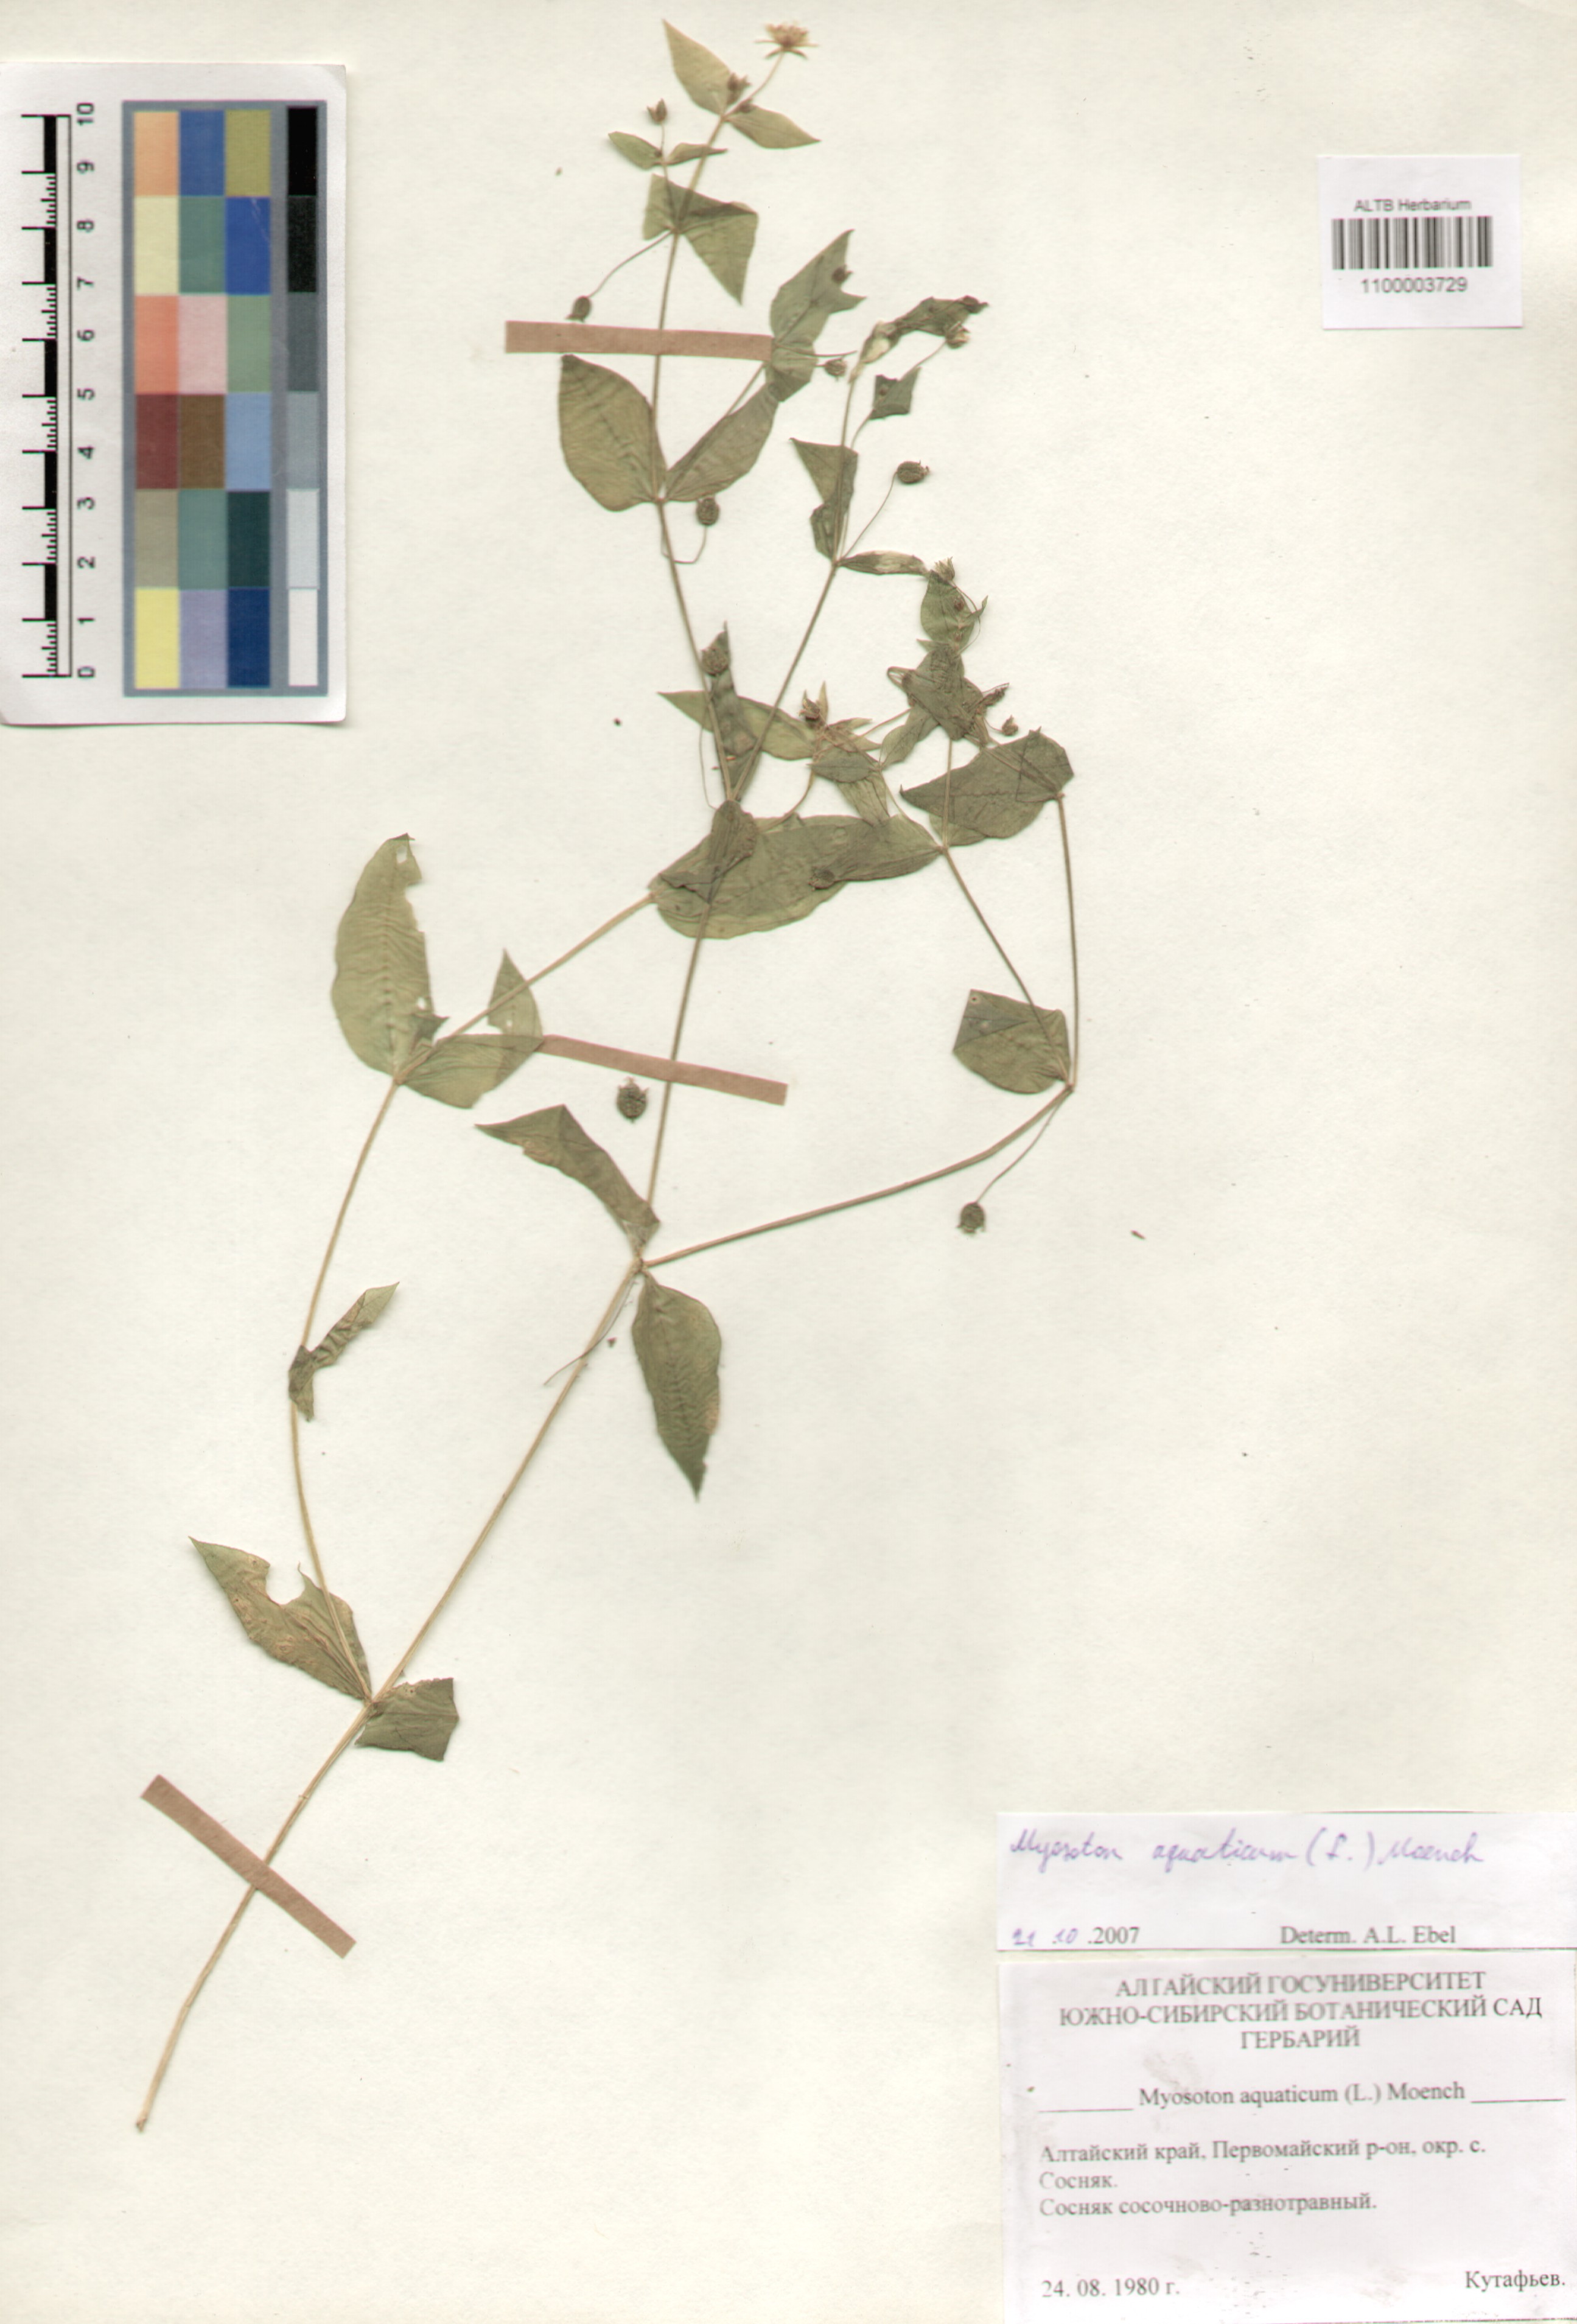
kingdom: Plantae
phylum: Tracheophyta
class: Magnoliopsida
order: Caryophyllales
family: Caryophyllaceae
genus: Stellaria
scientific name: Stellaria aquatica
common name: Water chickweed
